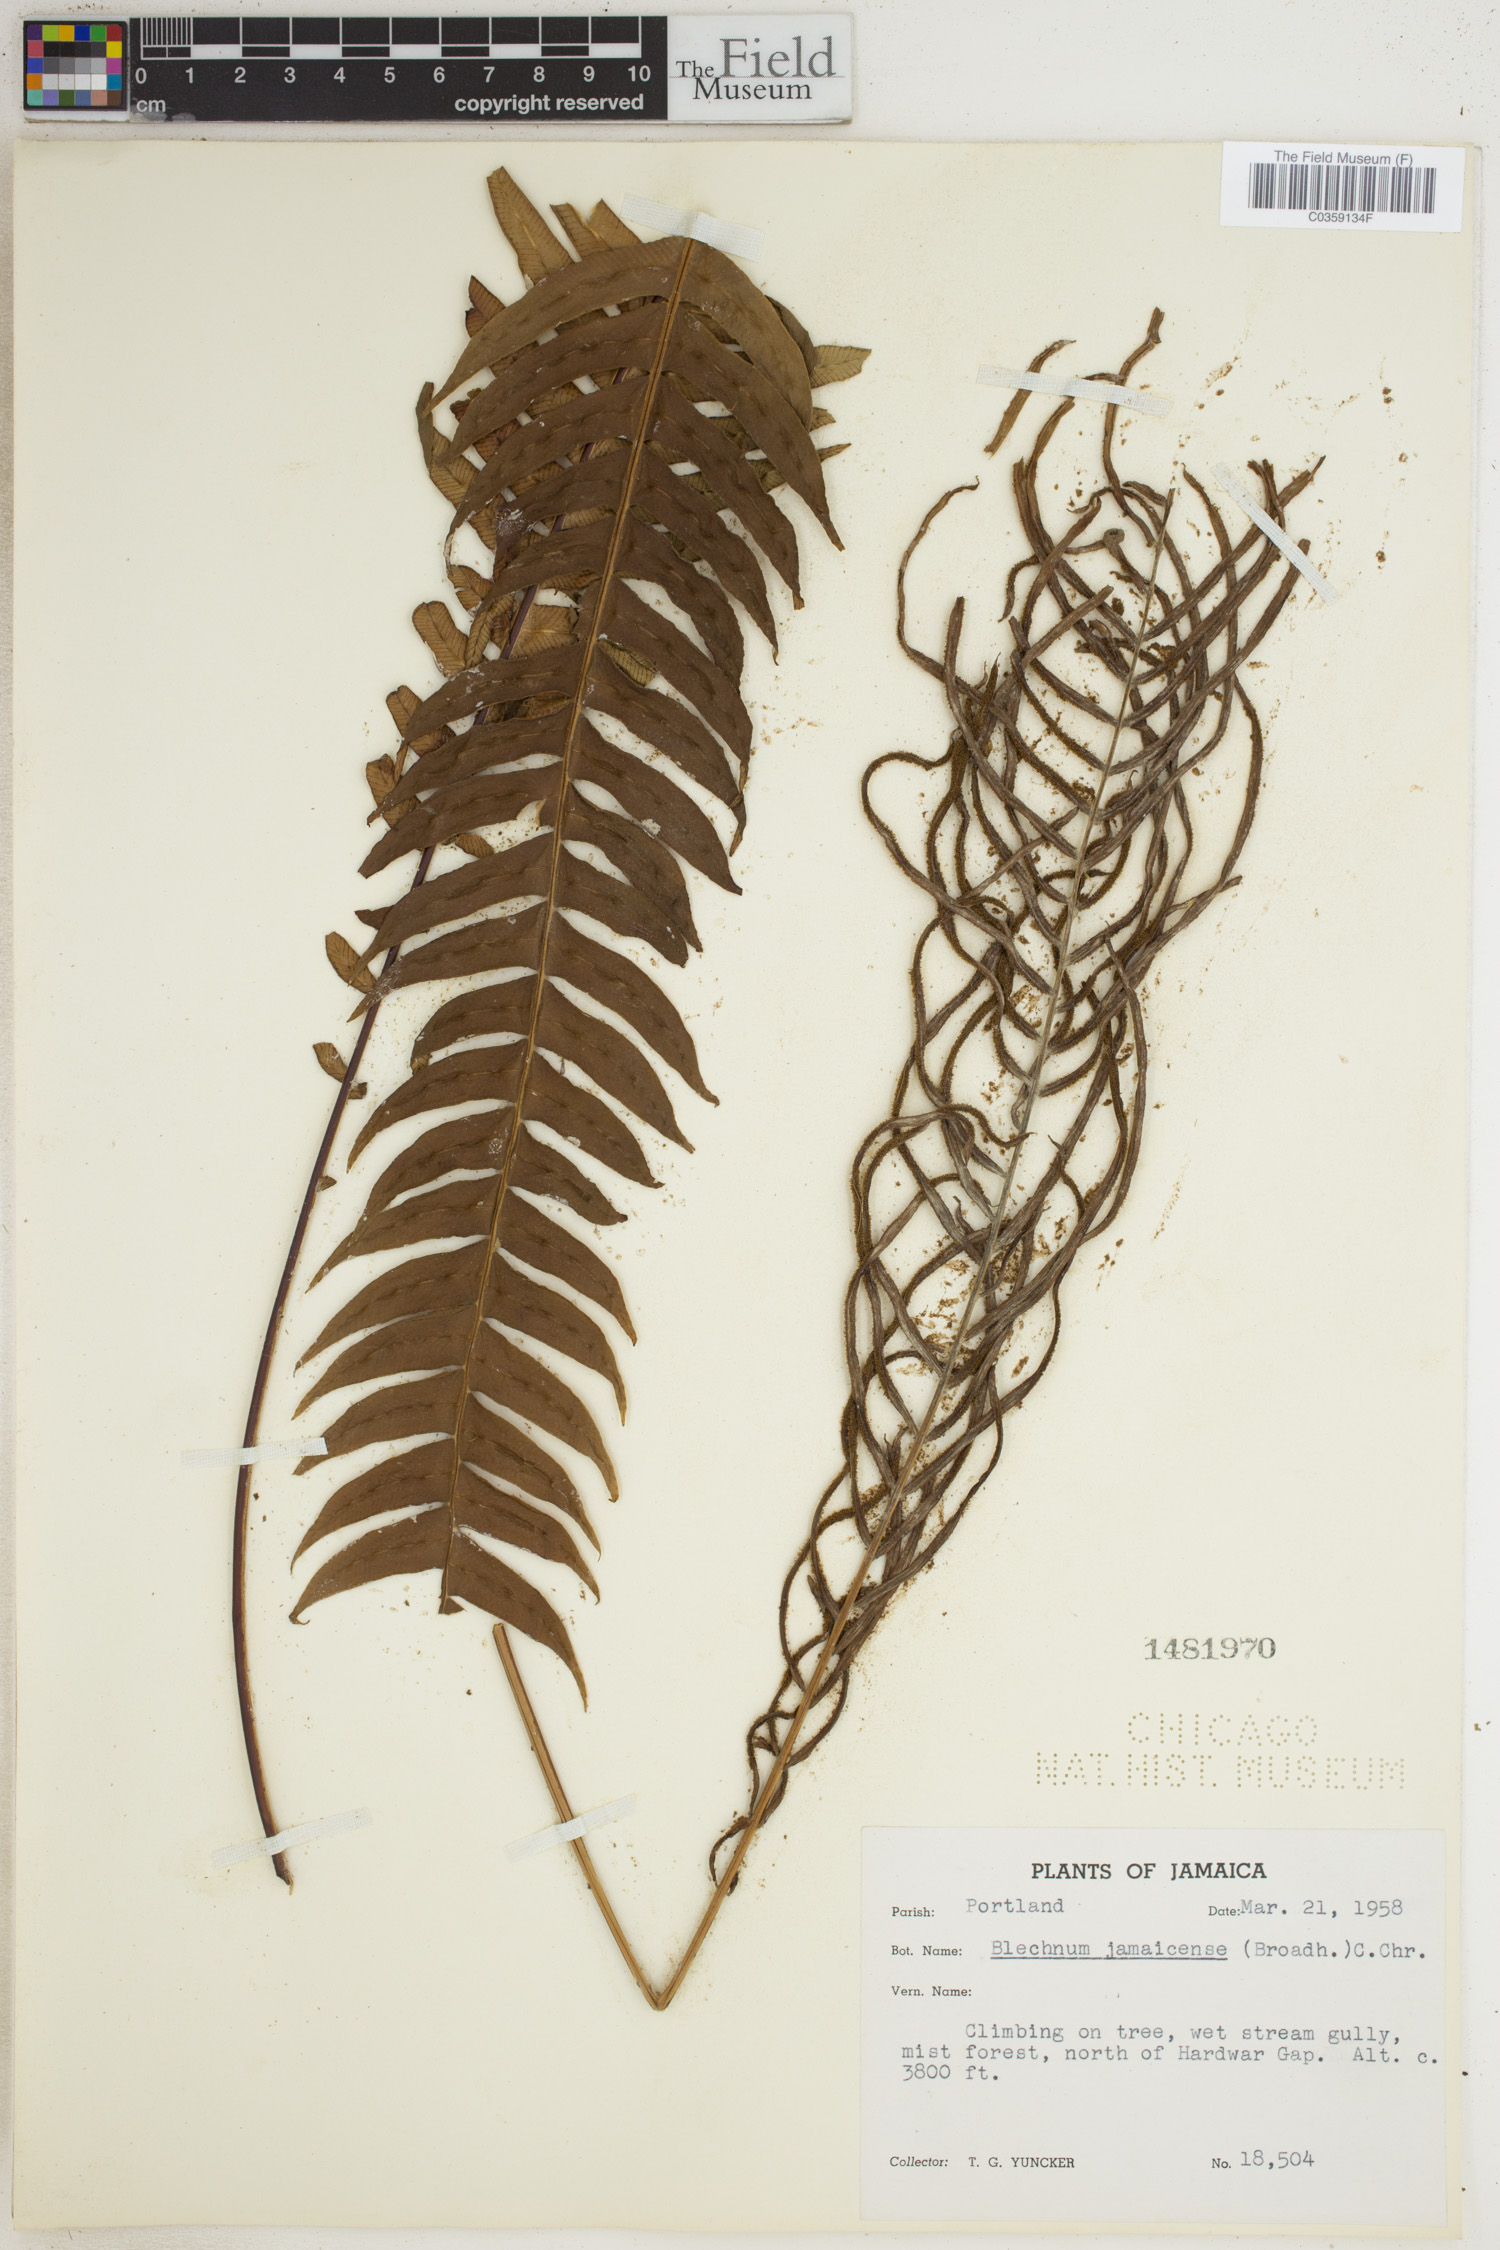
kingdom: Plantae
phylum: Tracheophyta
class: Polypodiopsida
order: Polypodiales
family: Blechnaceae
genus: Austroblechnum
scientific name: Austroblechnum jamaicense
